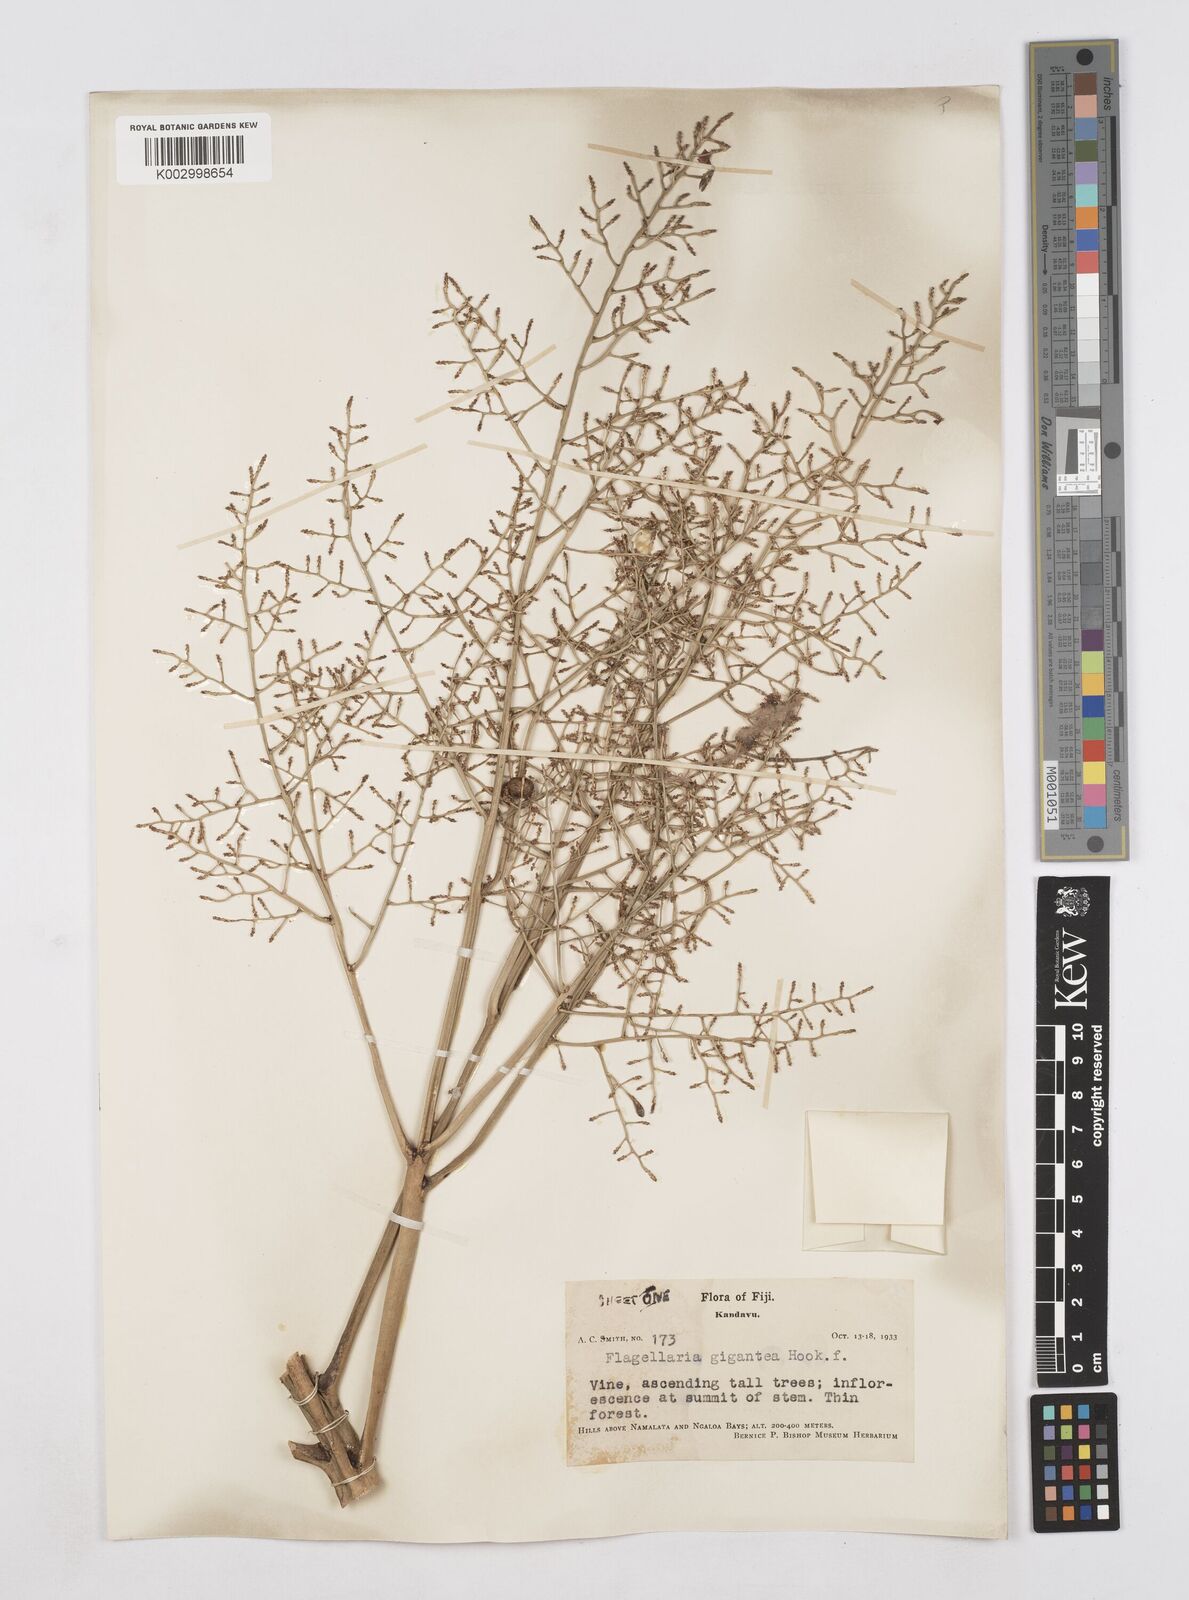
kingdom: Plantae
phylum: Tracheophyta
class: Liliopsida
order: Poales
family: Flagellariaceae
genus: Flagellaria
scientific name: Flagellaria gigantea
